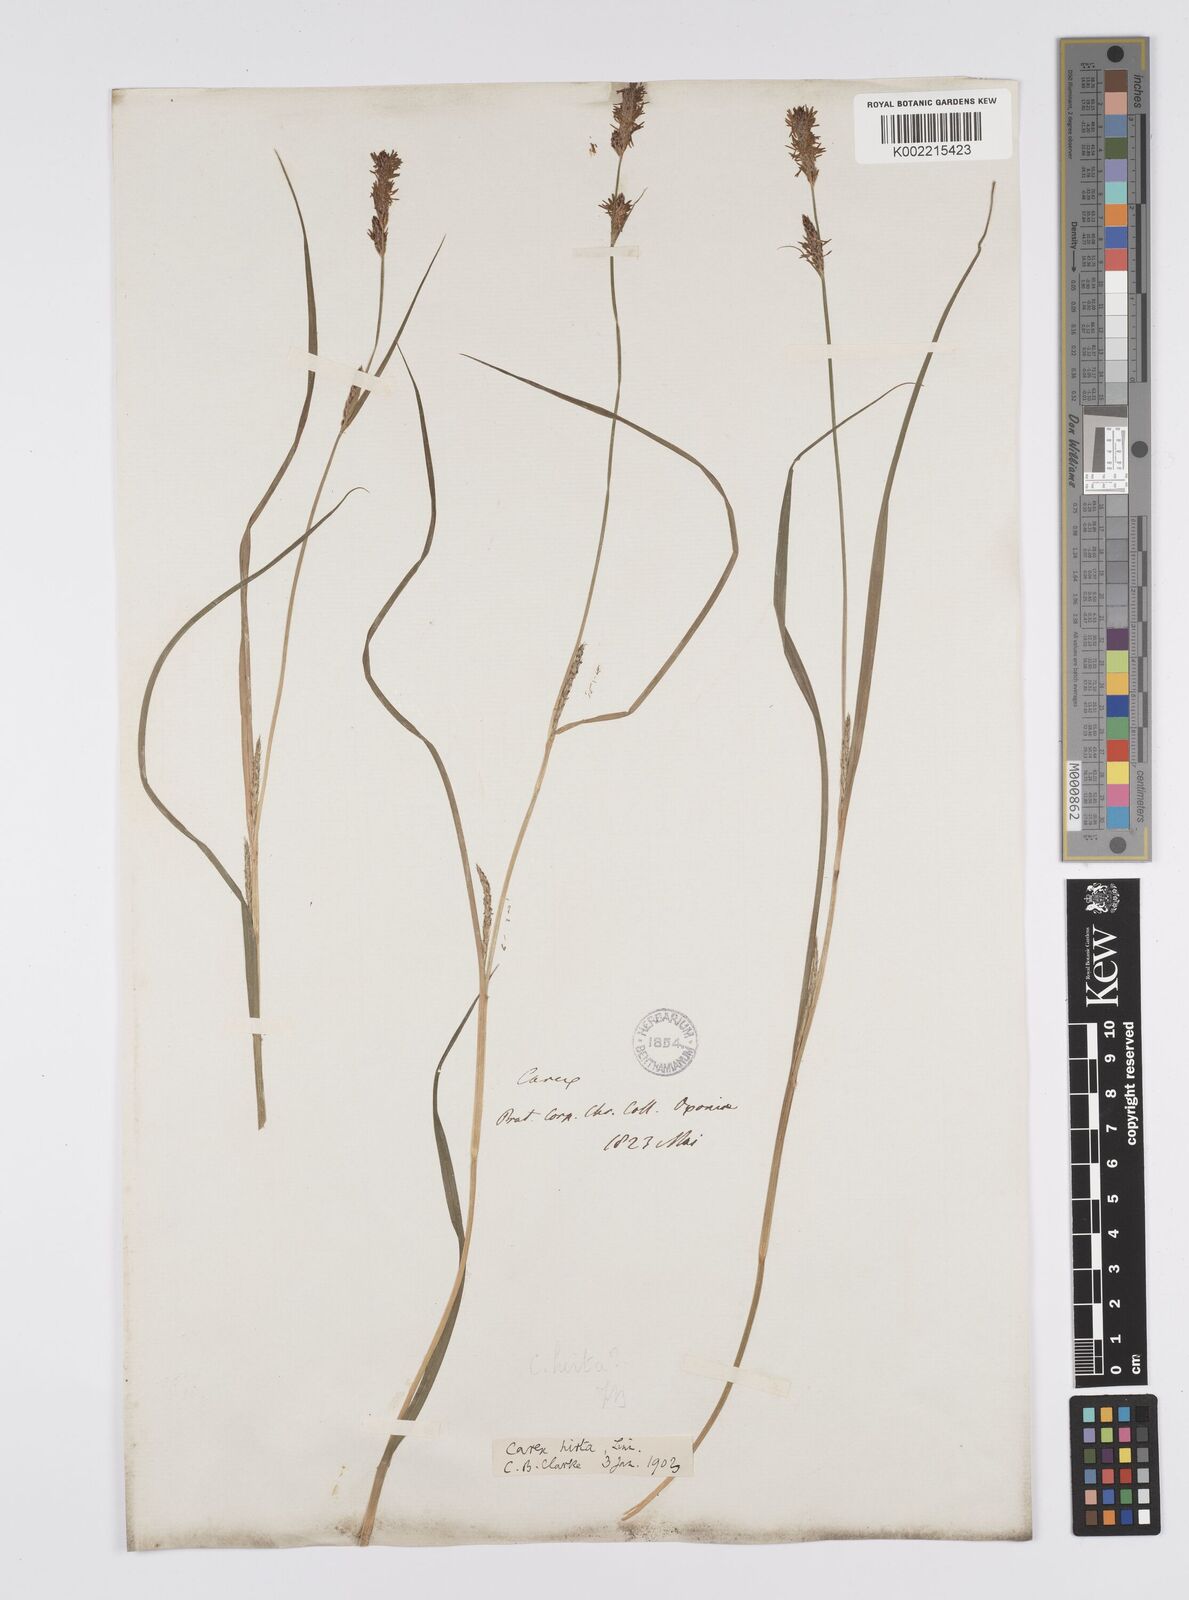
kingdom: Plantae
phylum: Tracheophyta
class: Liliopsida
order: Poales
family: Cyperaceae
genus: Carex
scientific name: Carex hirta
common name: Hairy sedge
